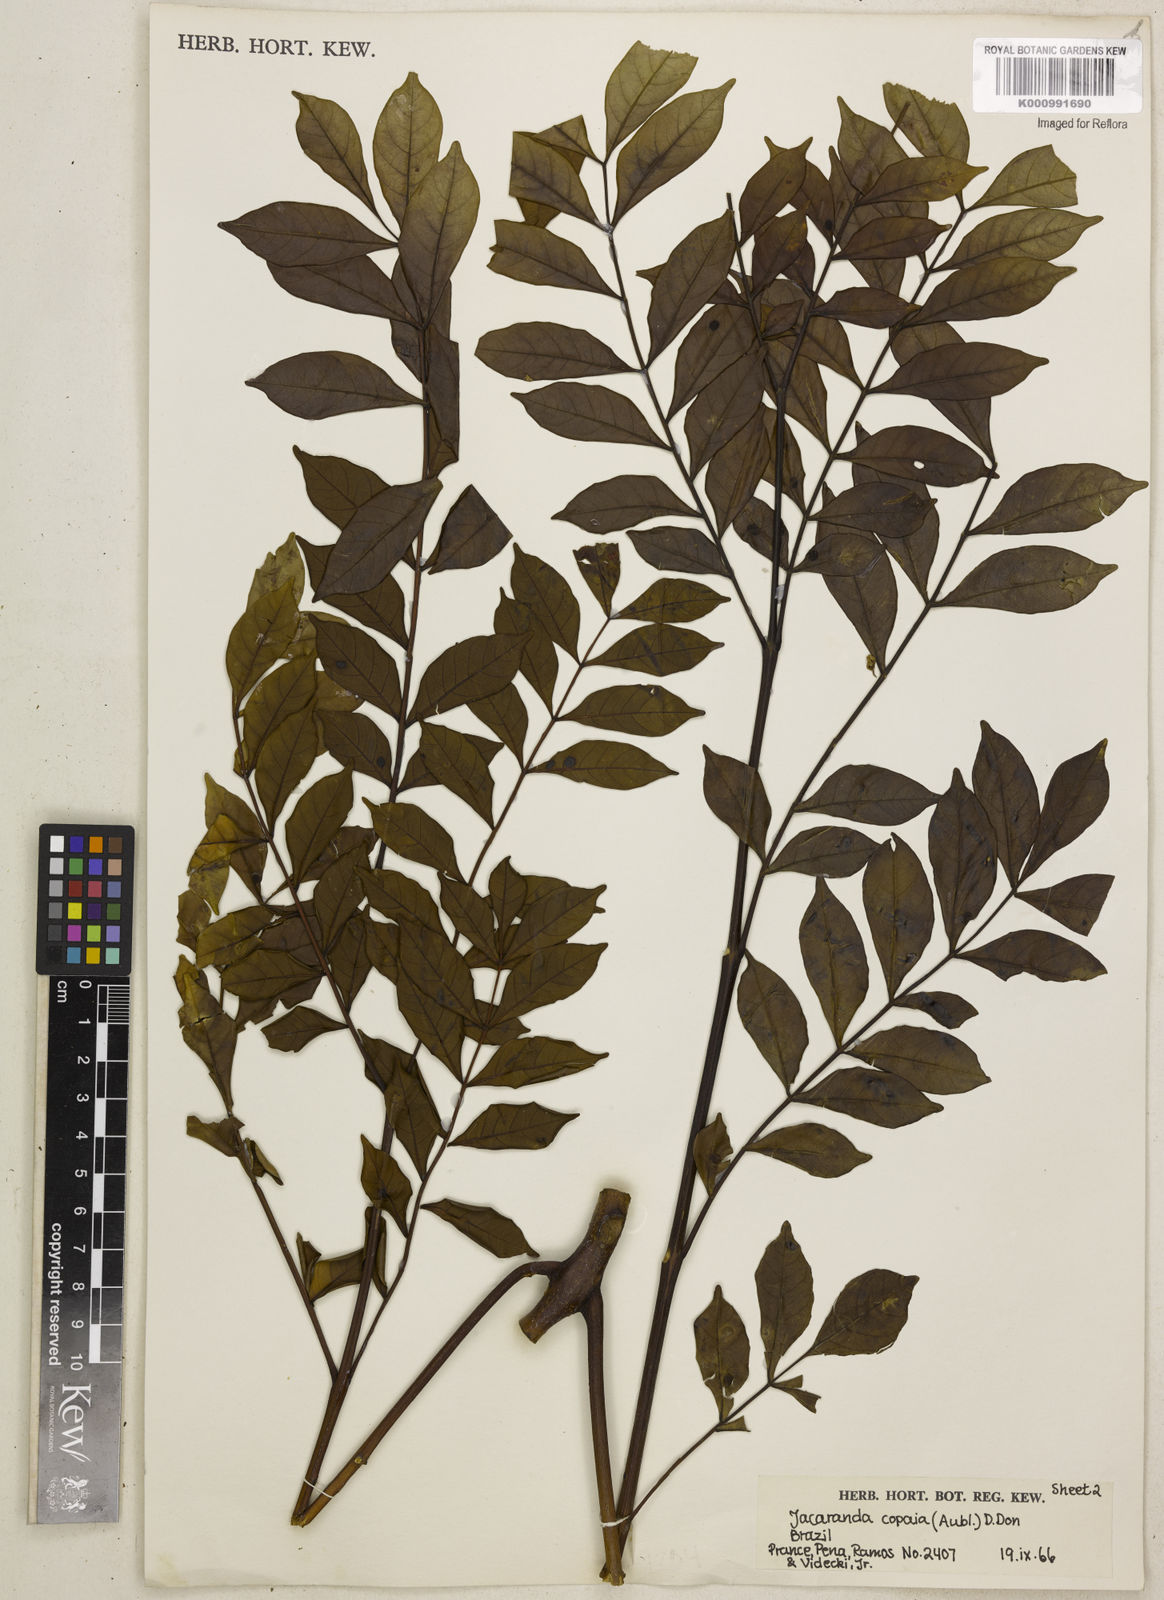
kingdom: Plantae
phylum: Tracheophyta
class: Magnoliopsida
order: Lamiales
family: Bignoniaceae
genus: Jacaranda
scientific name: Jacaranda
